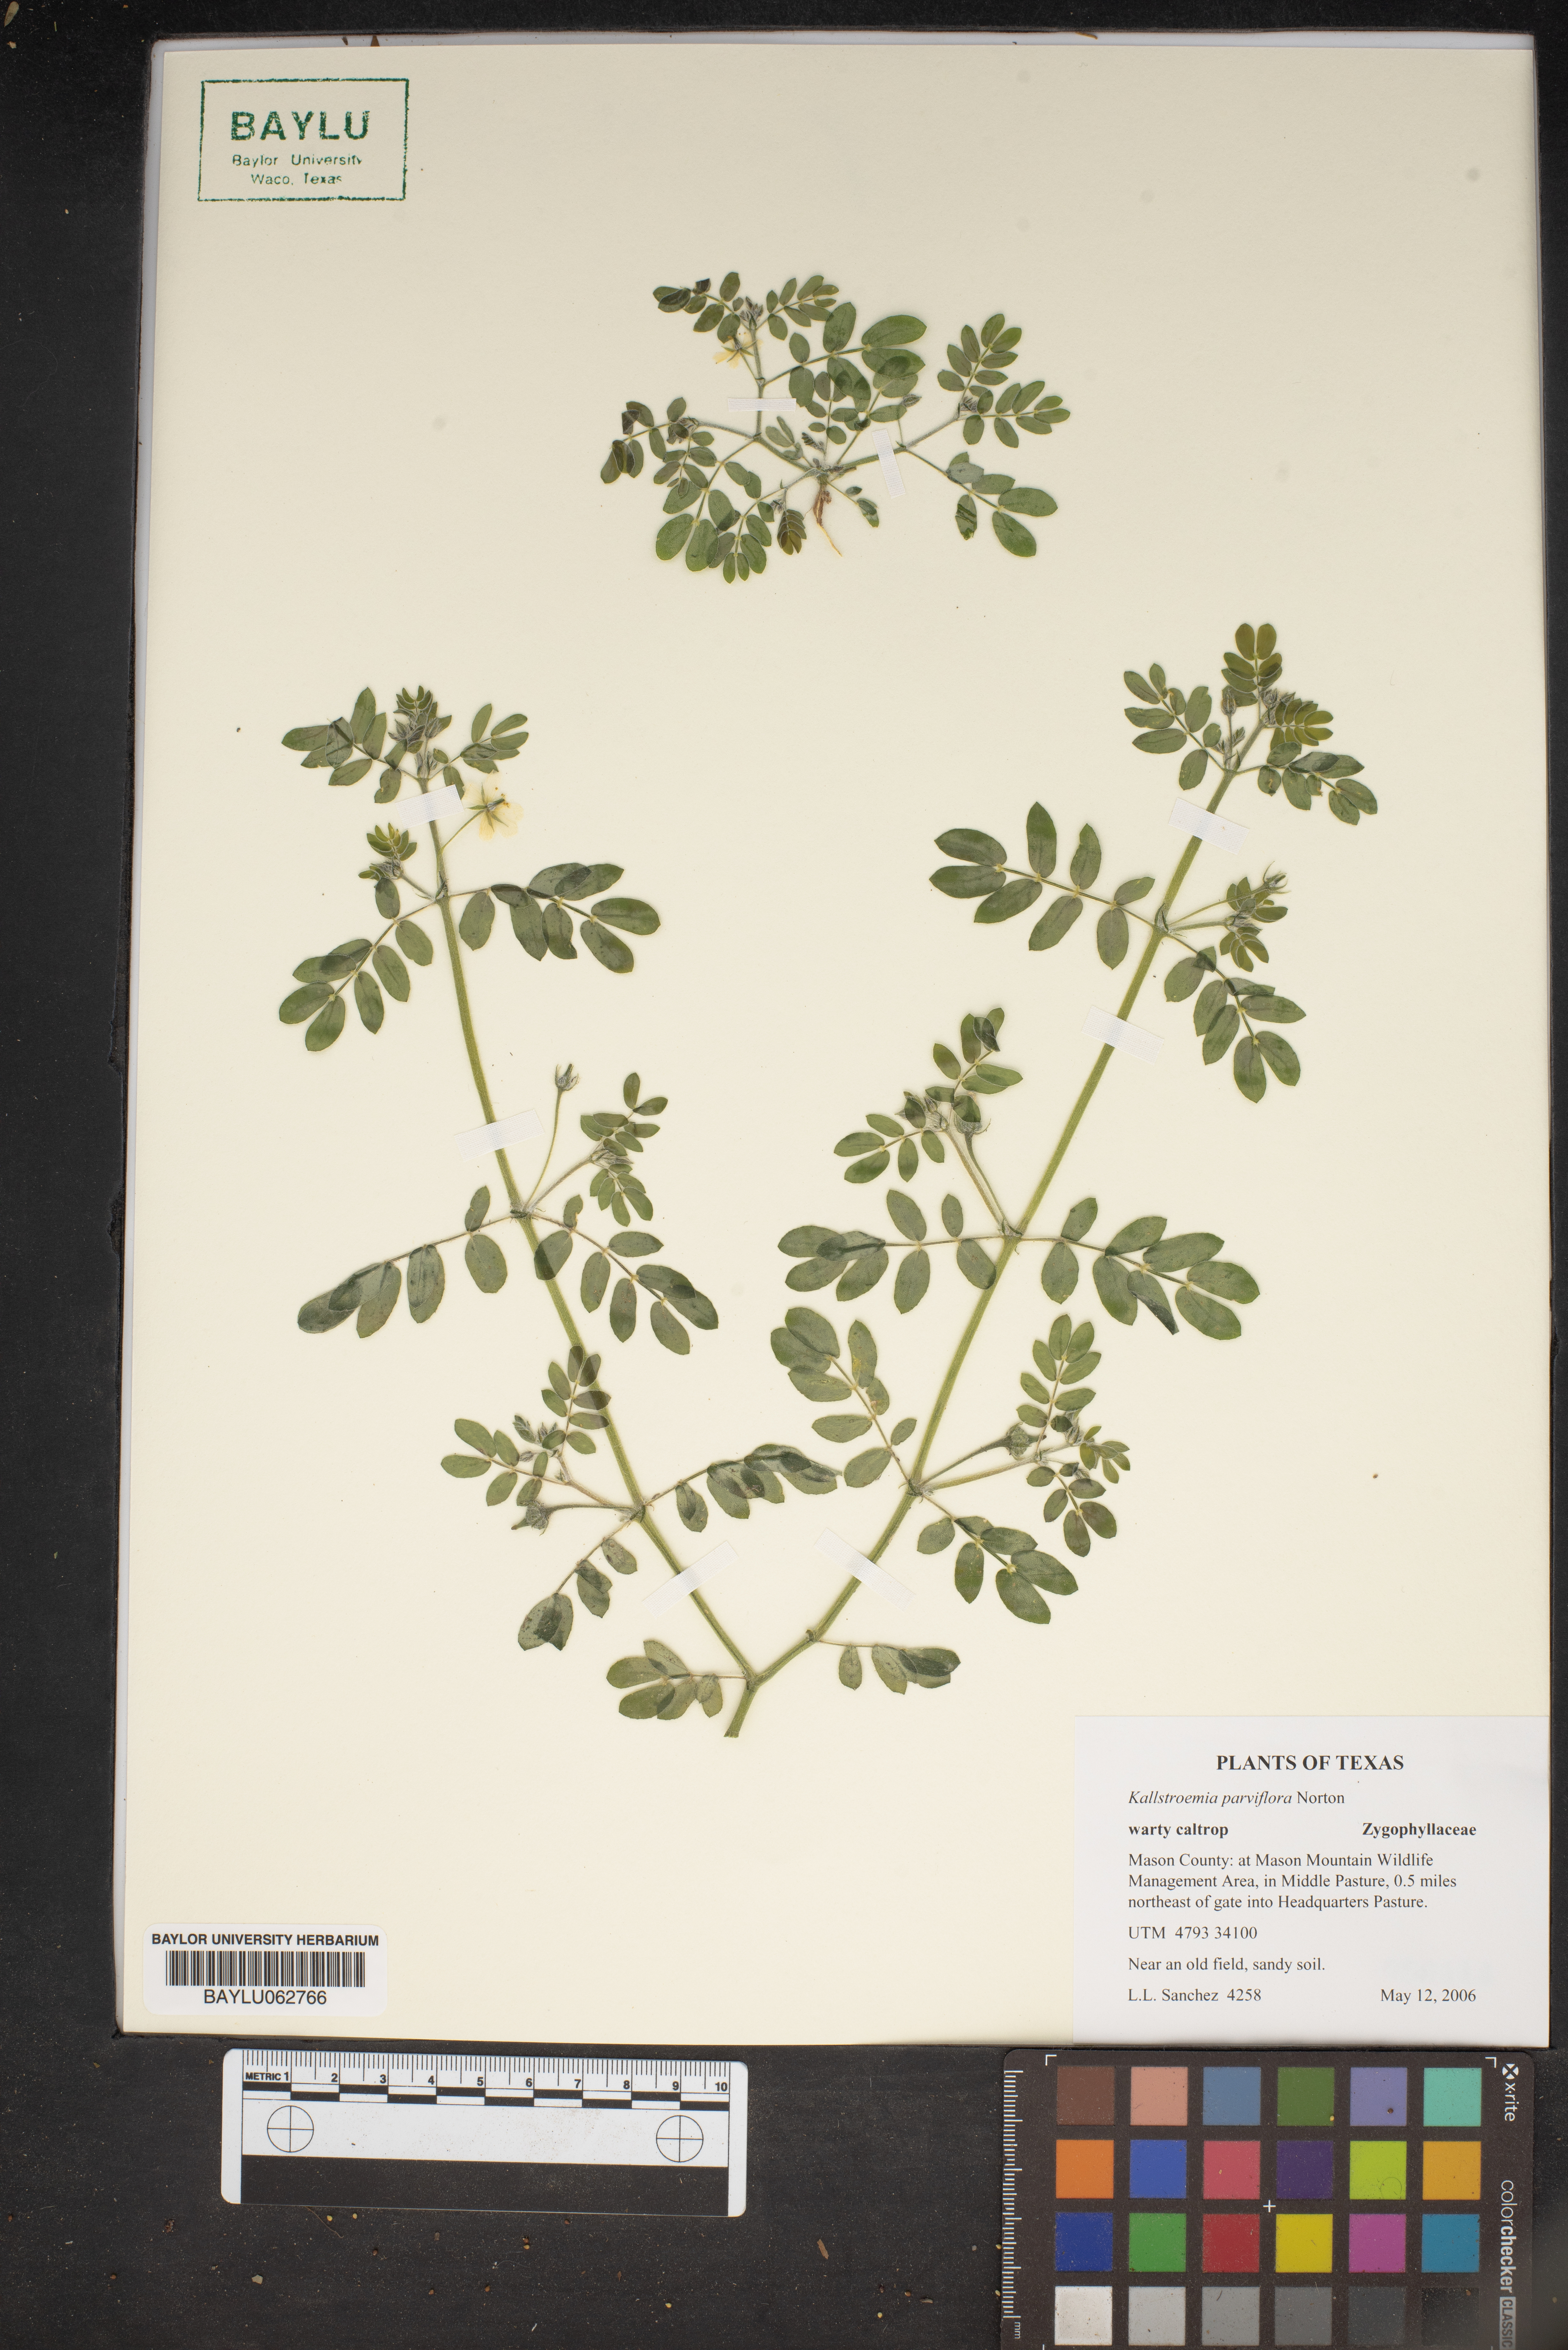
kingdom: Plantae
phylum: Tracheophyta
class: Magnoliopsida
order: Zygophyllales
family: Zygophyllaceae
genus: Kallstroemia
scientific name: Kallstroemia parviflora
